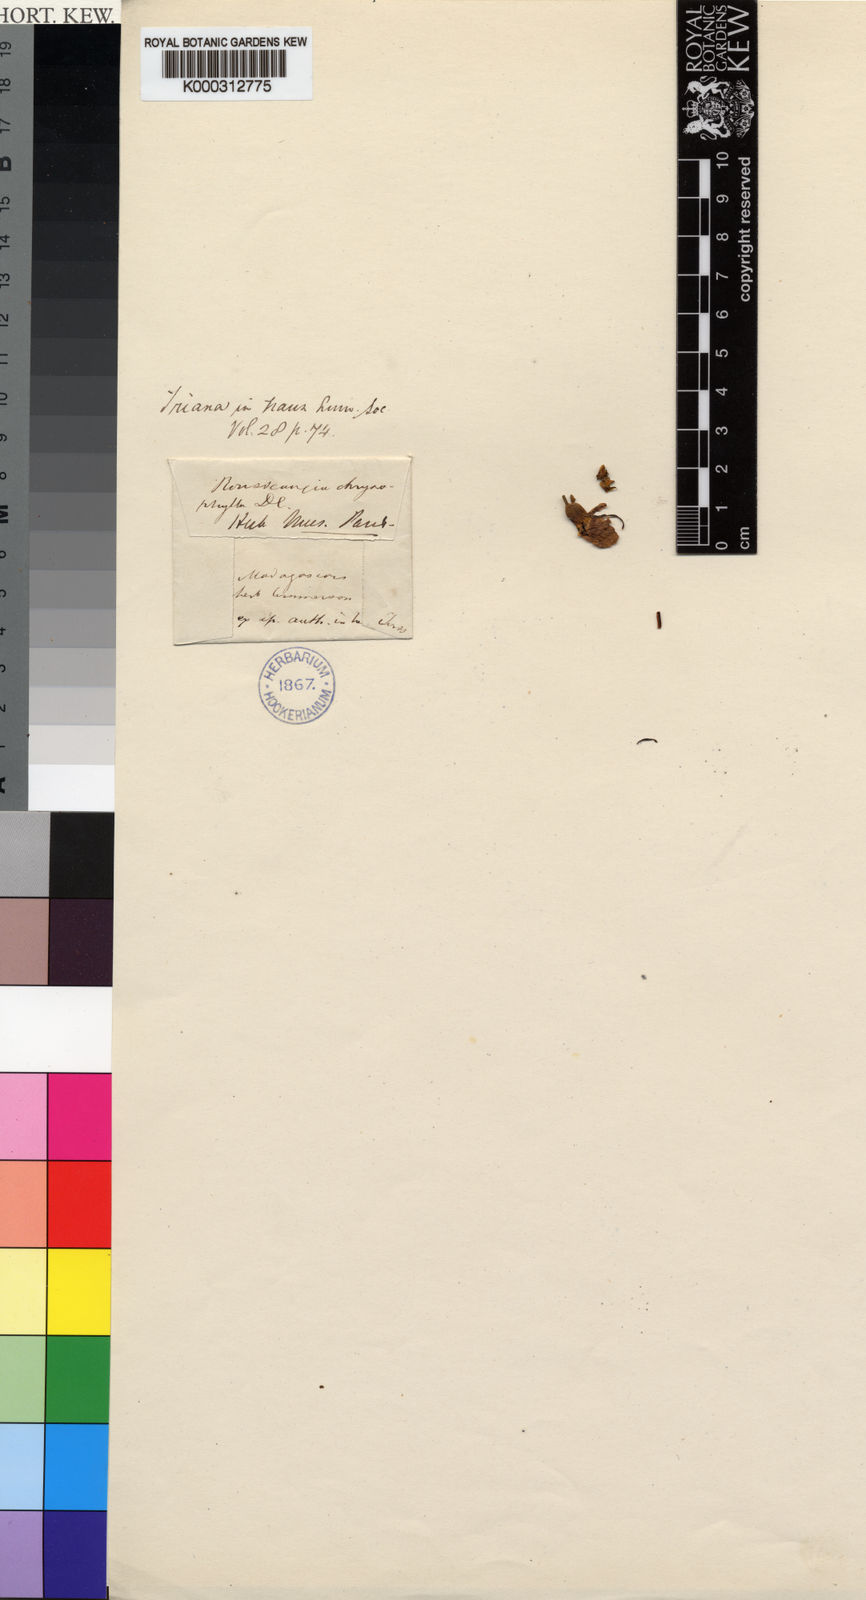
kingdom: Plantae
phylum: Tracheophyta
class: Magnoliopsida
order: Myrtales
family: Melastomataceae
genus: Rousseauxia
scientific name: Rousseauxia chrysophylla
